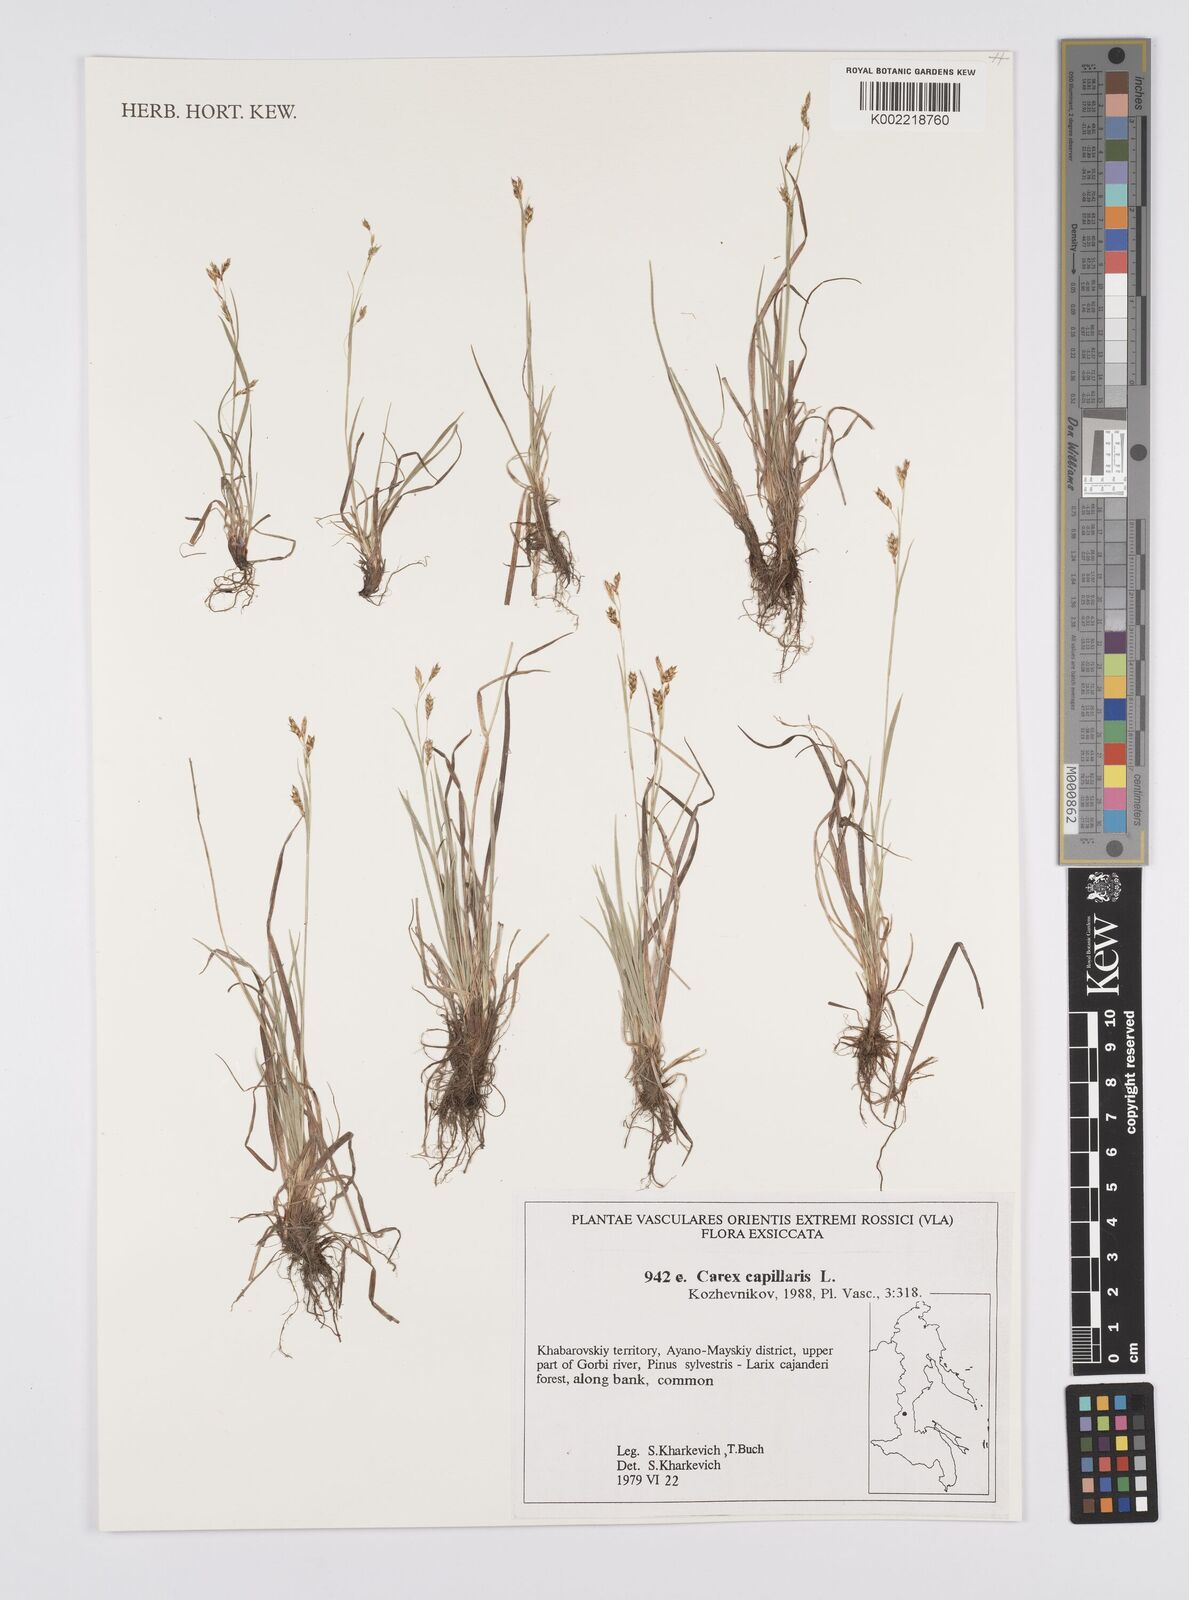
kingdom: Plantae
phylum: Tracheophyta
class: Liliopsida
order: Poales
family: Cyperaceae
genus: Carex
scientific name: Carex capillaris
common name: Hair sedge
